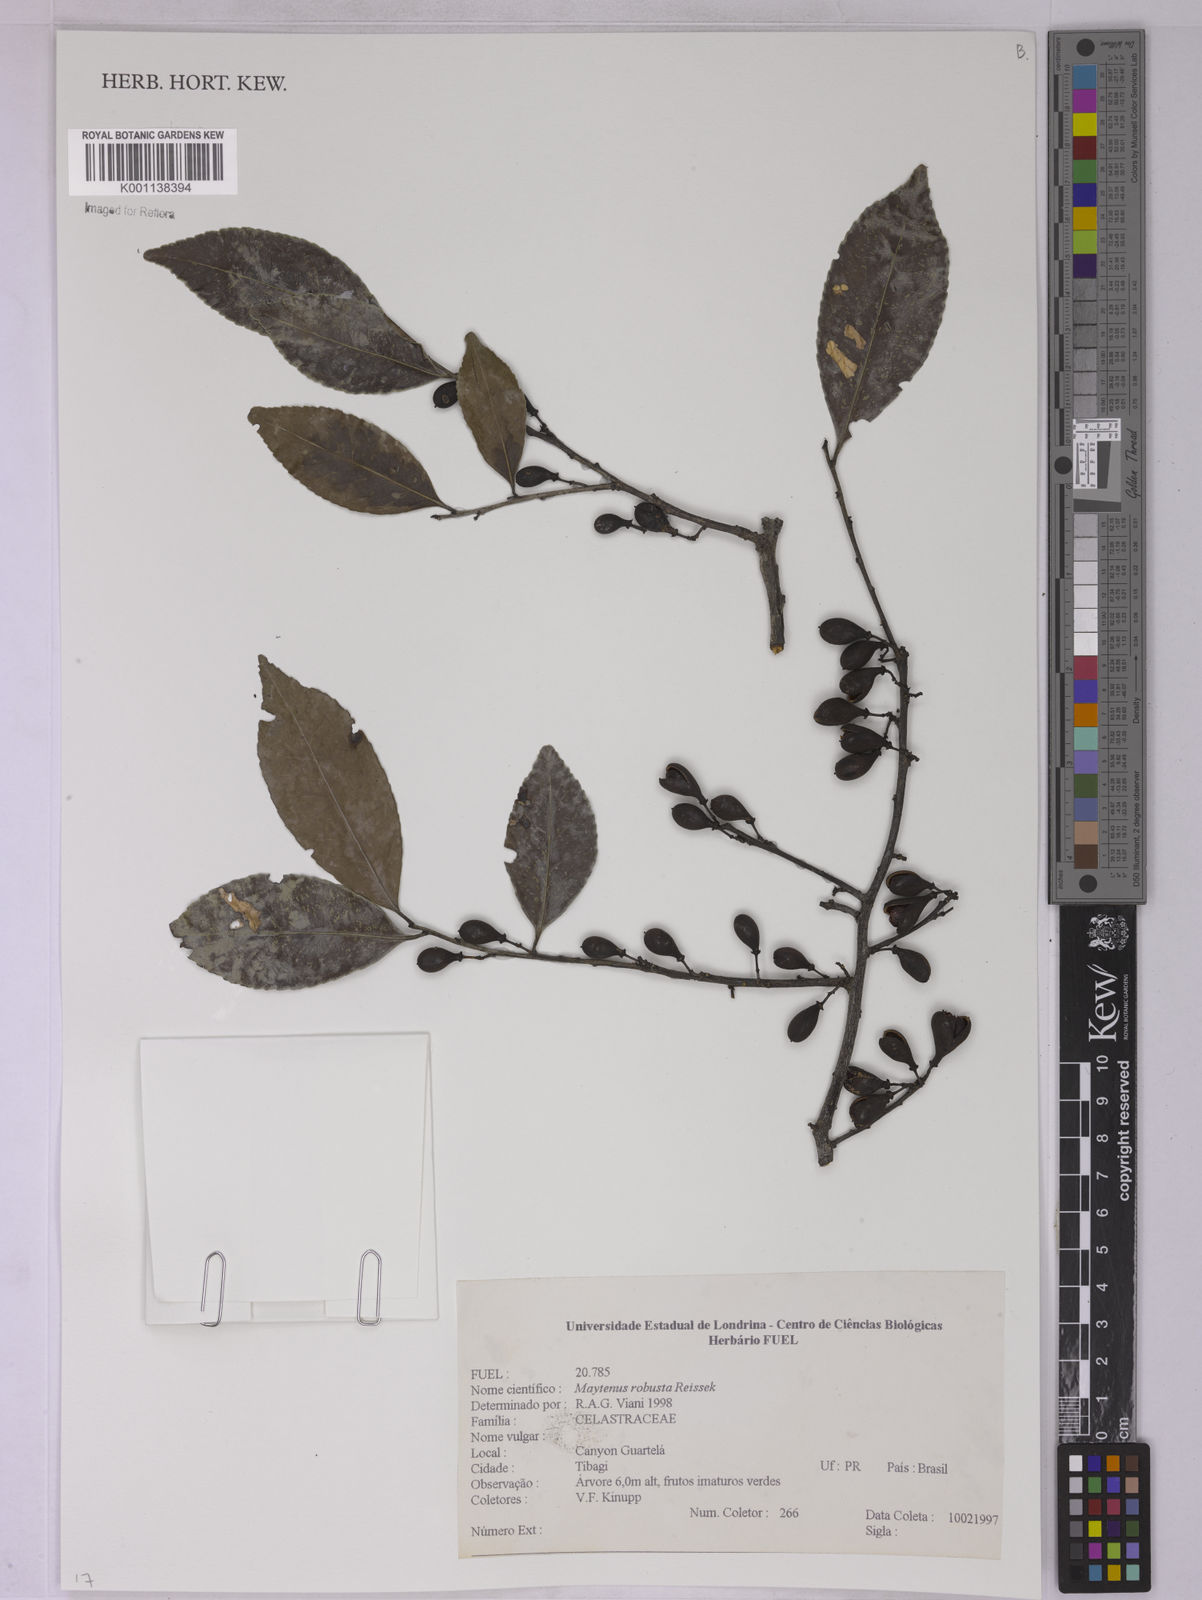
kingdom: Plantae
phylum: Tracheophyta
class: Magnoliopsida
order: Celastrales
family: Celastraceae
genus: Monteverdia
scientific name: Monteverdia robusta
